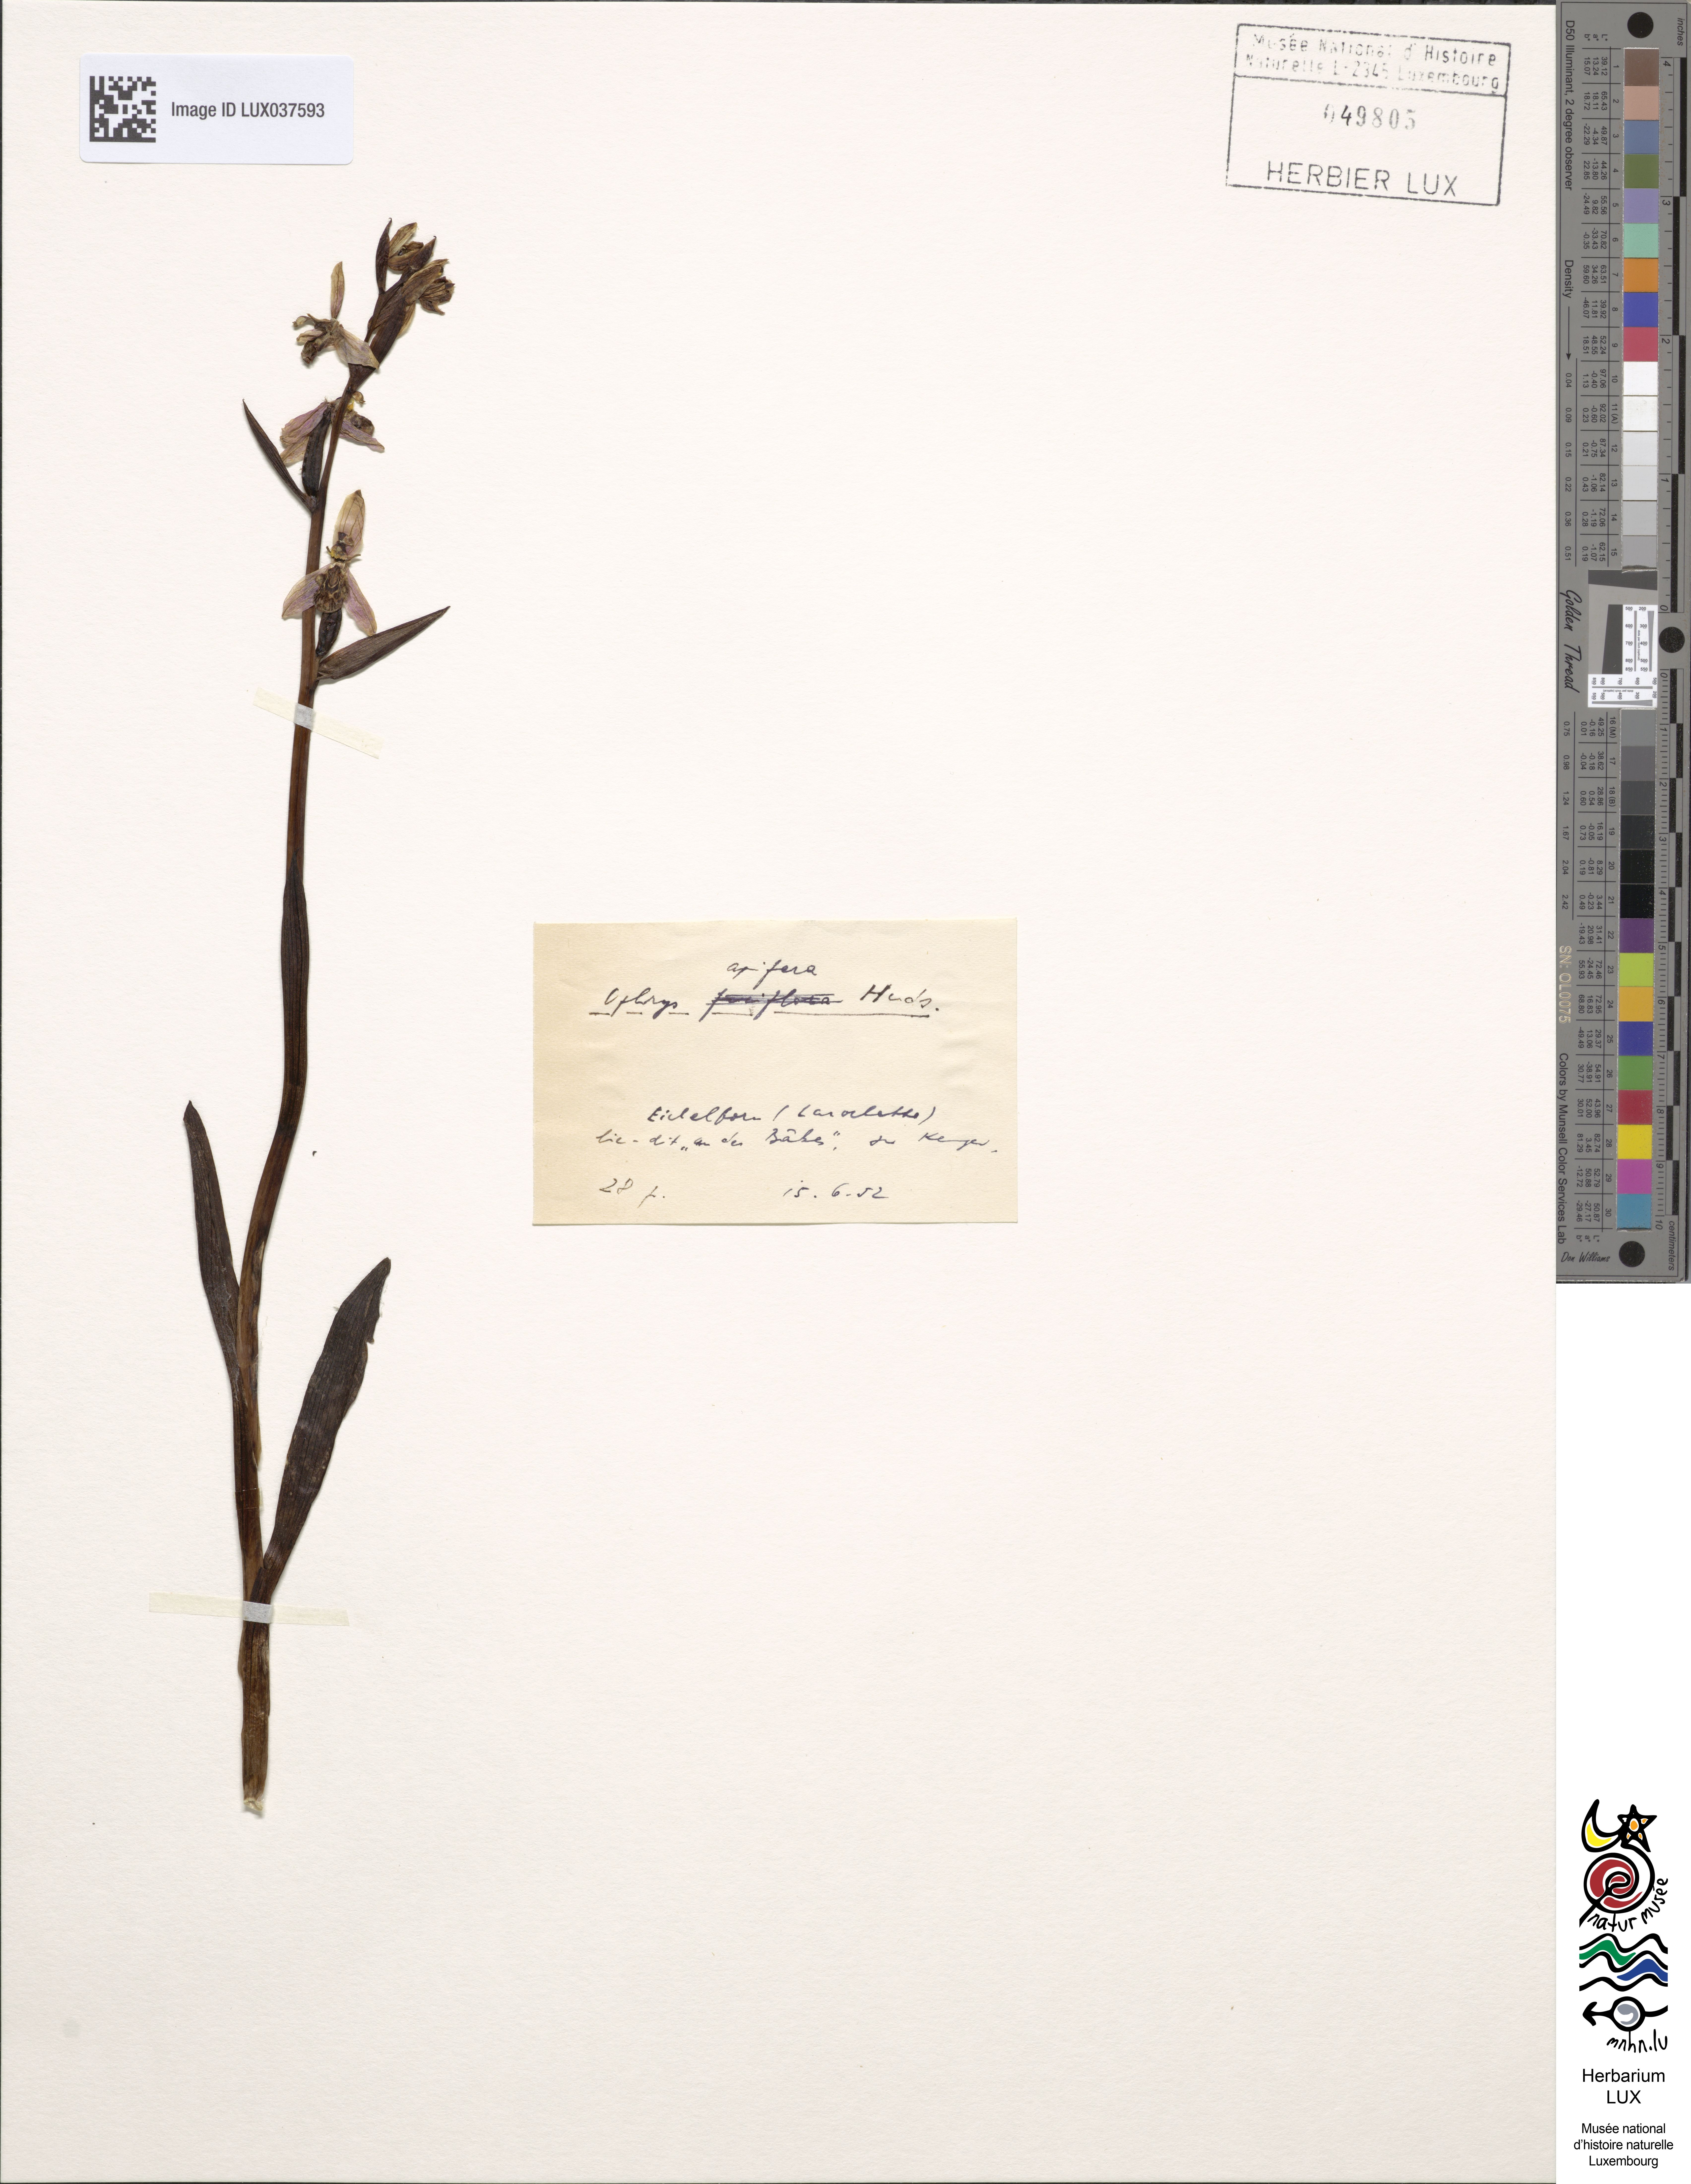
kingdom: Plantae
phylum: Tracheophyta
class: Liliopsida
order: Asparagales
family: Orchidaceae
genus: Ophrys
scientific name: Ophrys apifera
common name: Bee orchid
